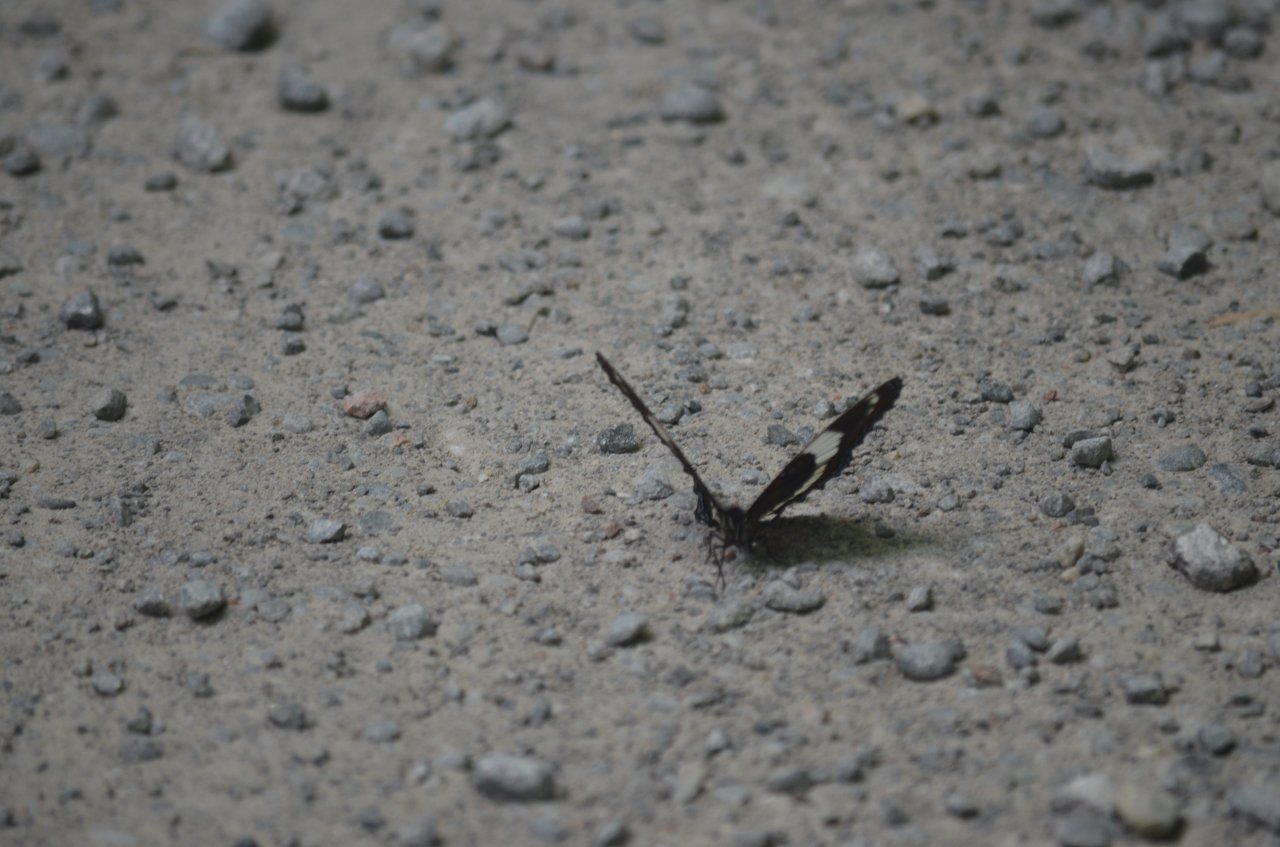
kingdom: Animalia
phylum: Arthropoda
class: Insecta
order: Lepidoptera
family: Nymphalidae
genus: Limenitis
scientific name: Limenitis arthemis
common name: Red-spotted Admiral
